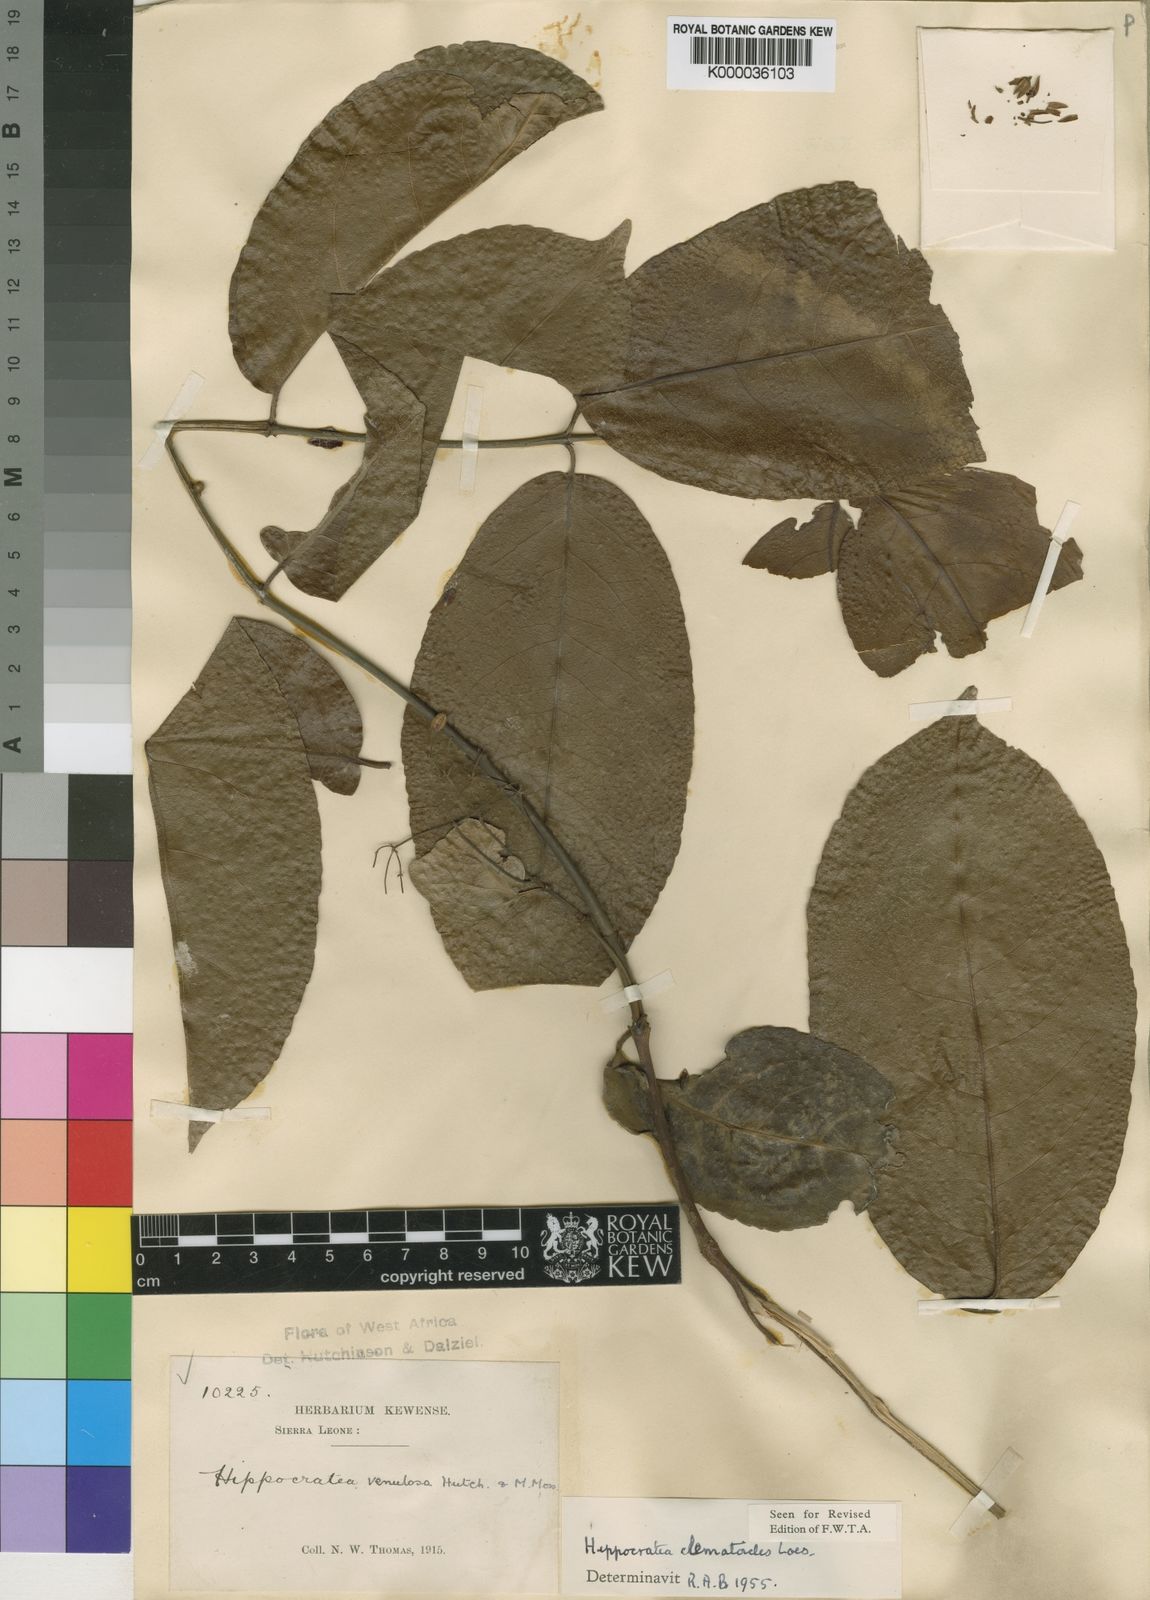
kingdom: Plantae
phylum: Tracheophyta
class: Magnoliopsida
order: Celastrales
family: Celastraceae
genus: Loeseneriella
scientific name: Loeseneriella
